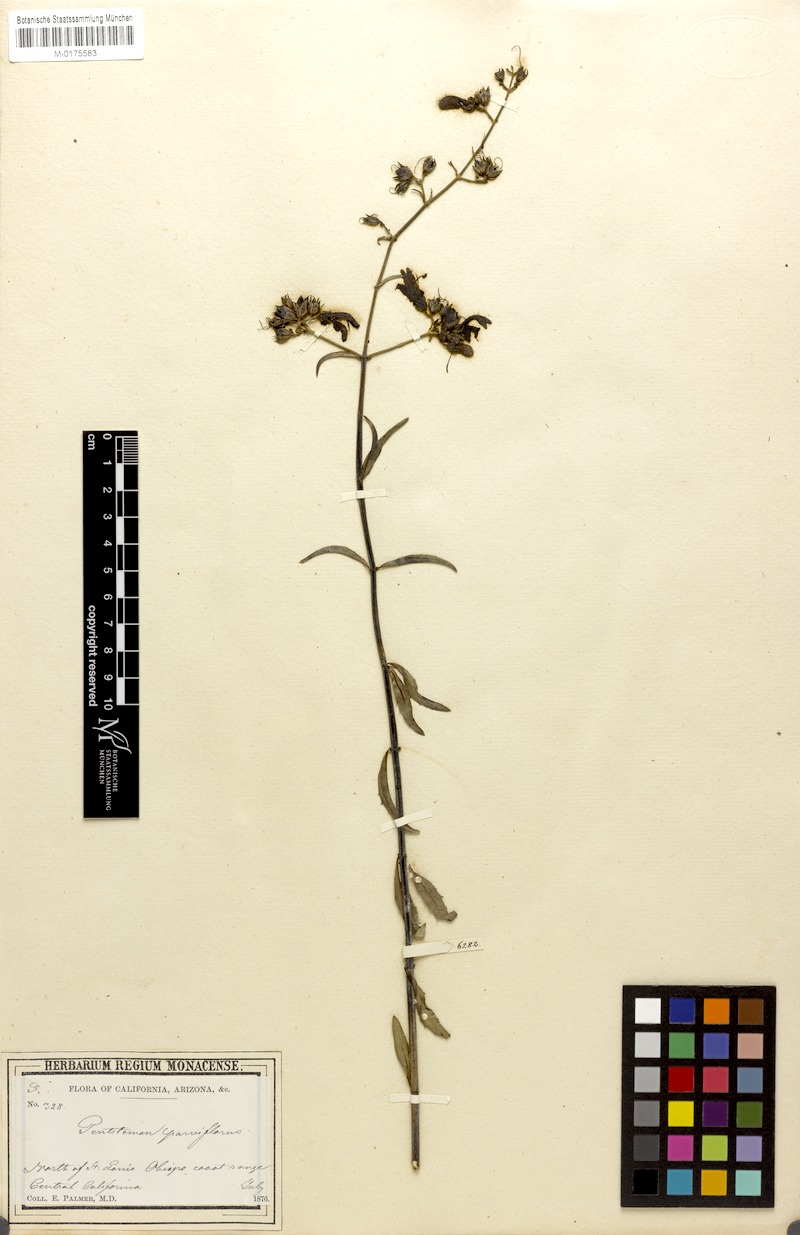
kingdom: Plantae
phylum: Tracheophyta
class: Magnoliopsida
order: Lamiales
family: Plantaginaceae
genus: Penstemon
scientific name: Penstemon auriberbis
